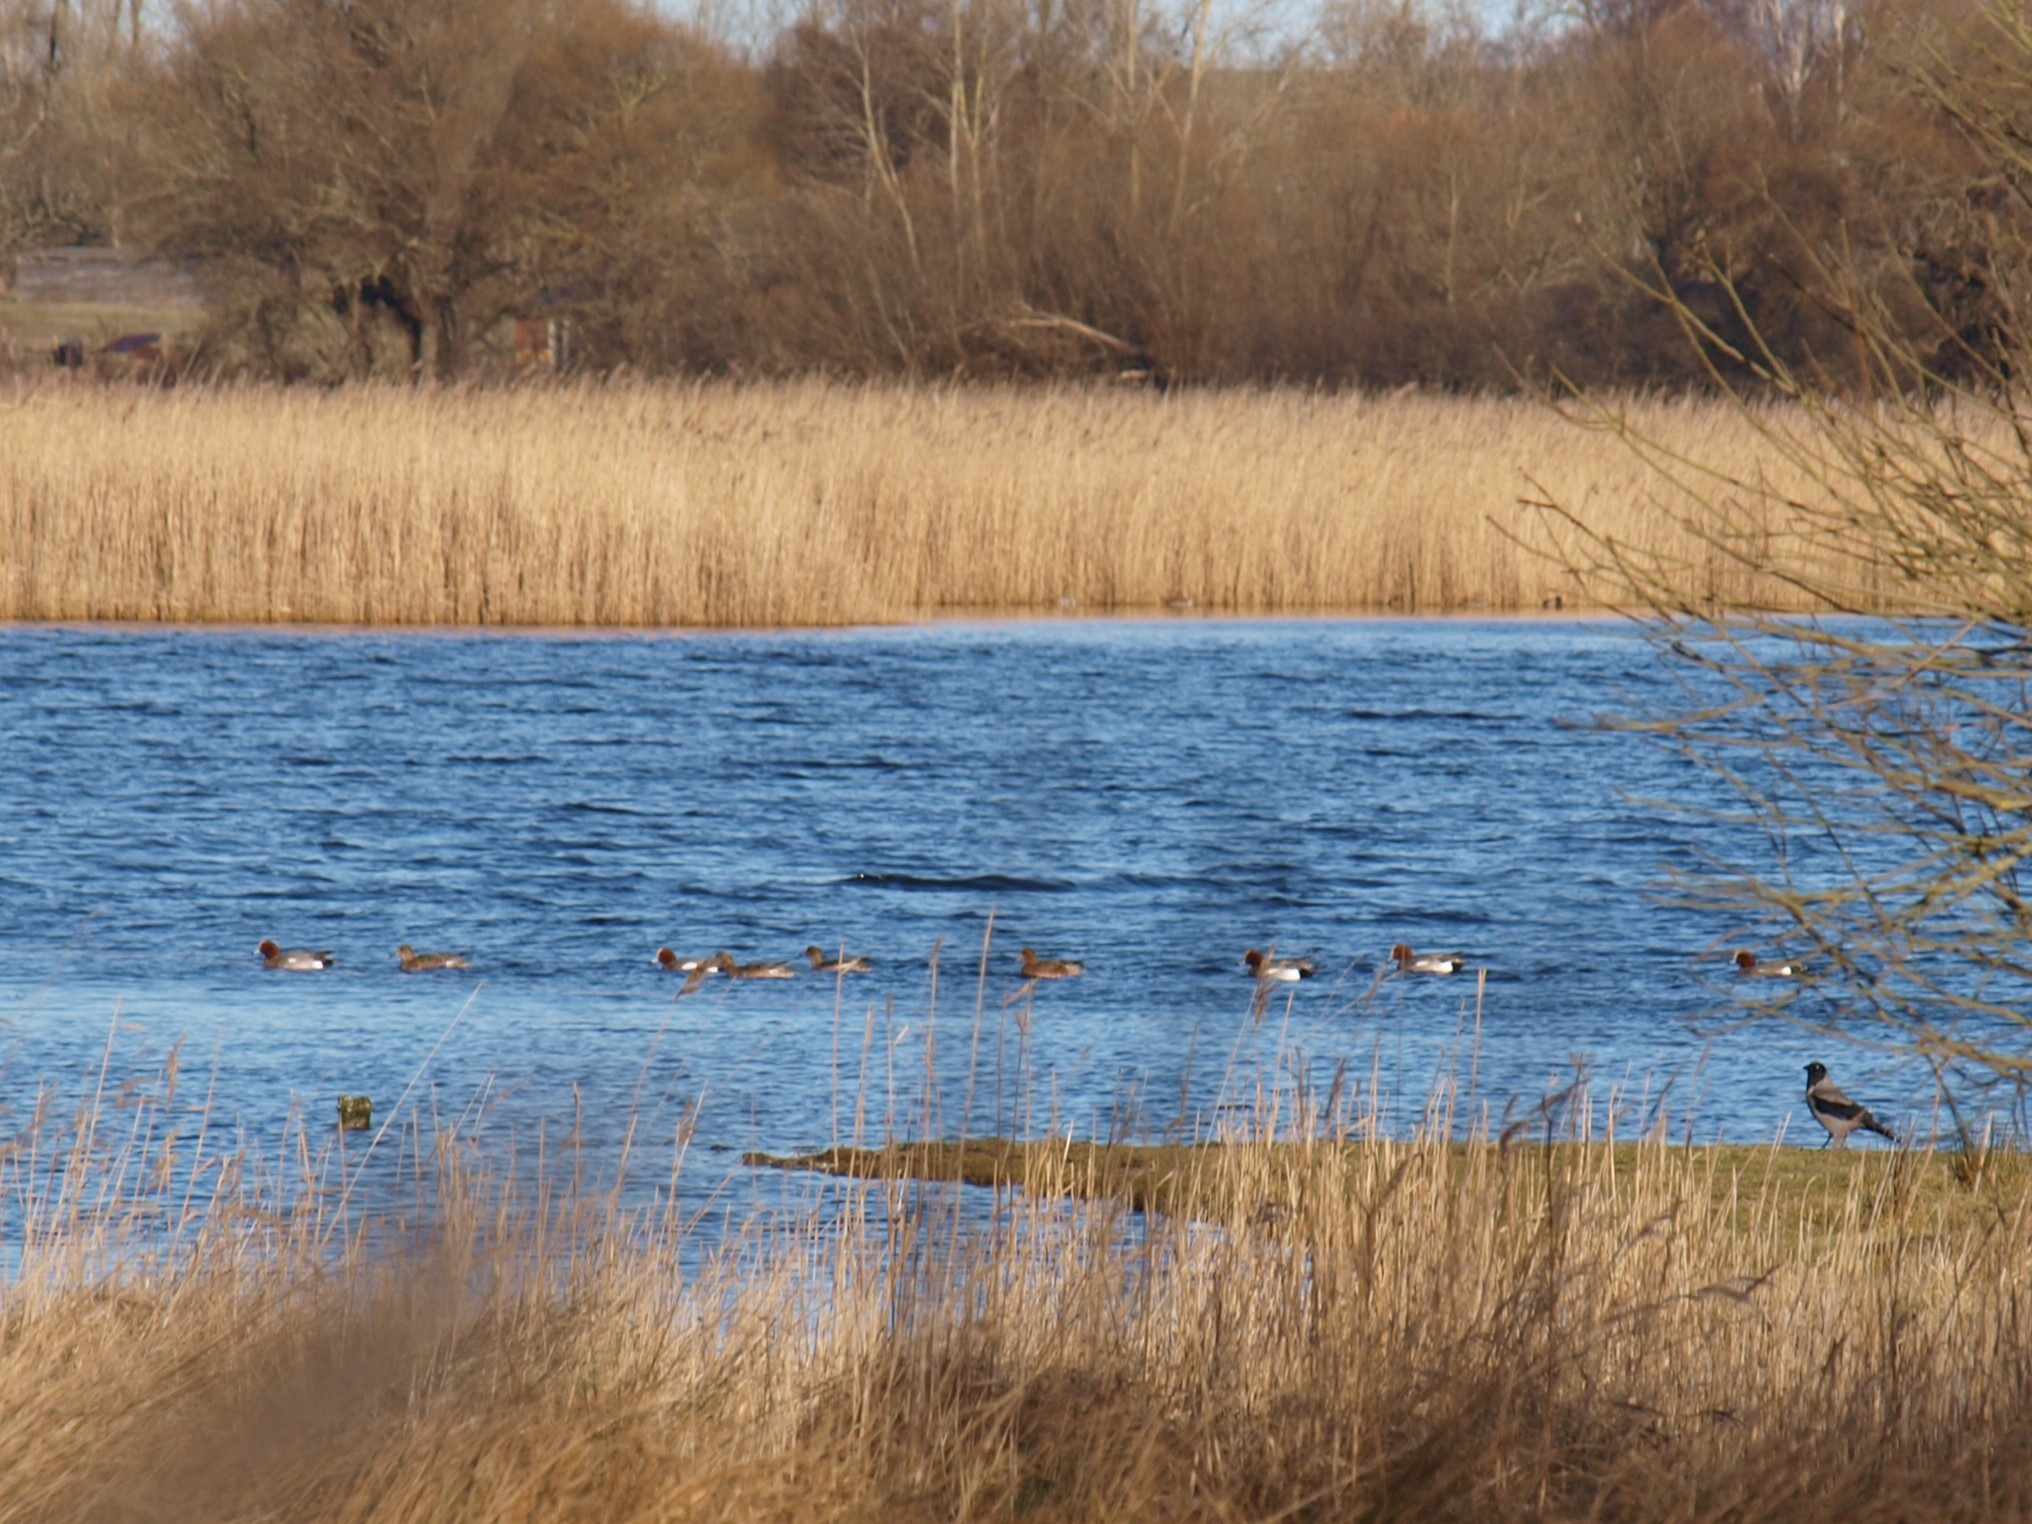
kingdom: Animalia
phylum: Chordata
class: Aves
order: Anseriformes
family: Anatidae
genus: Mareca
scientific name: Mareca penelope
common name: Pibeand
